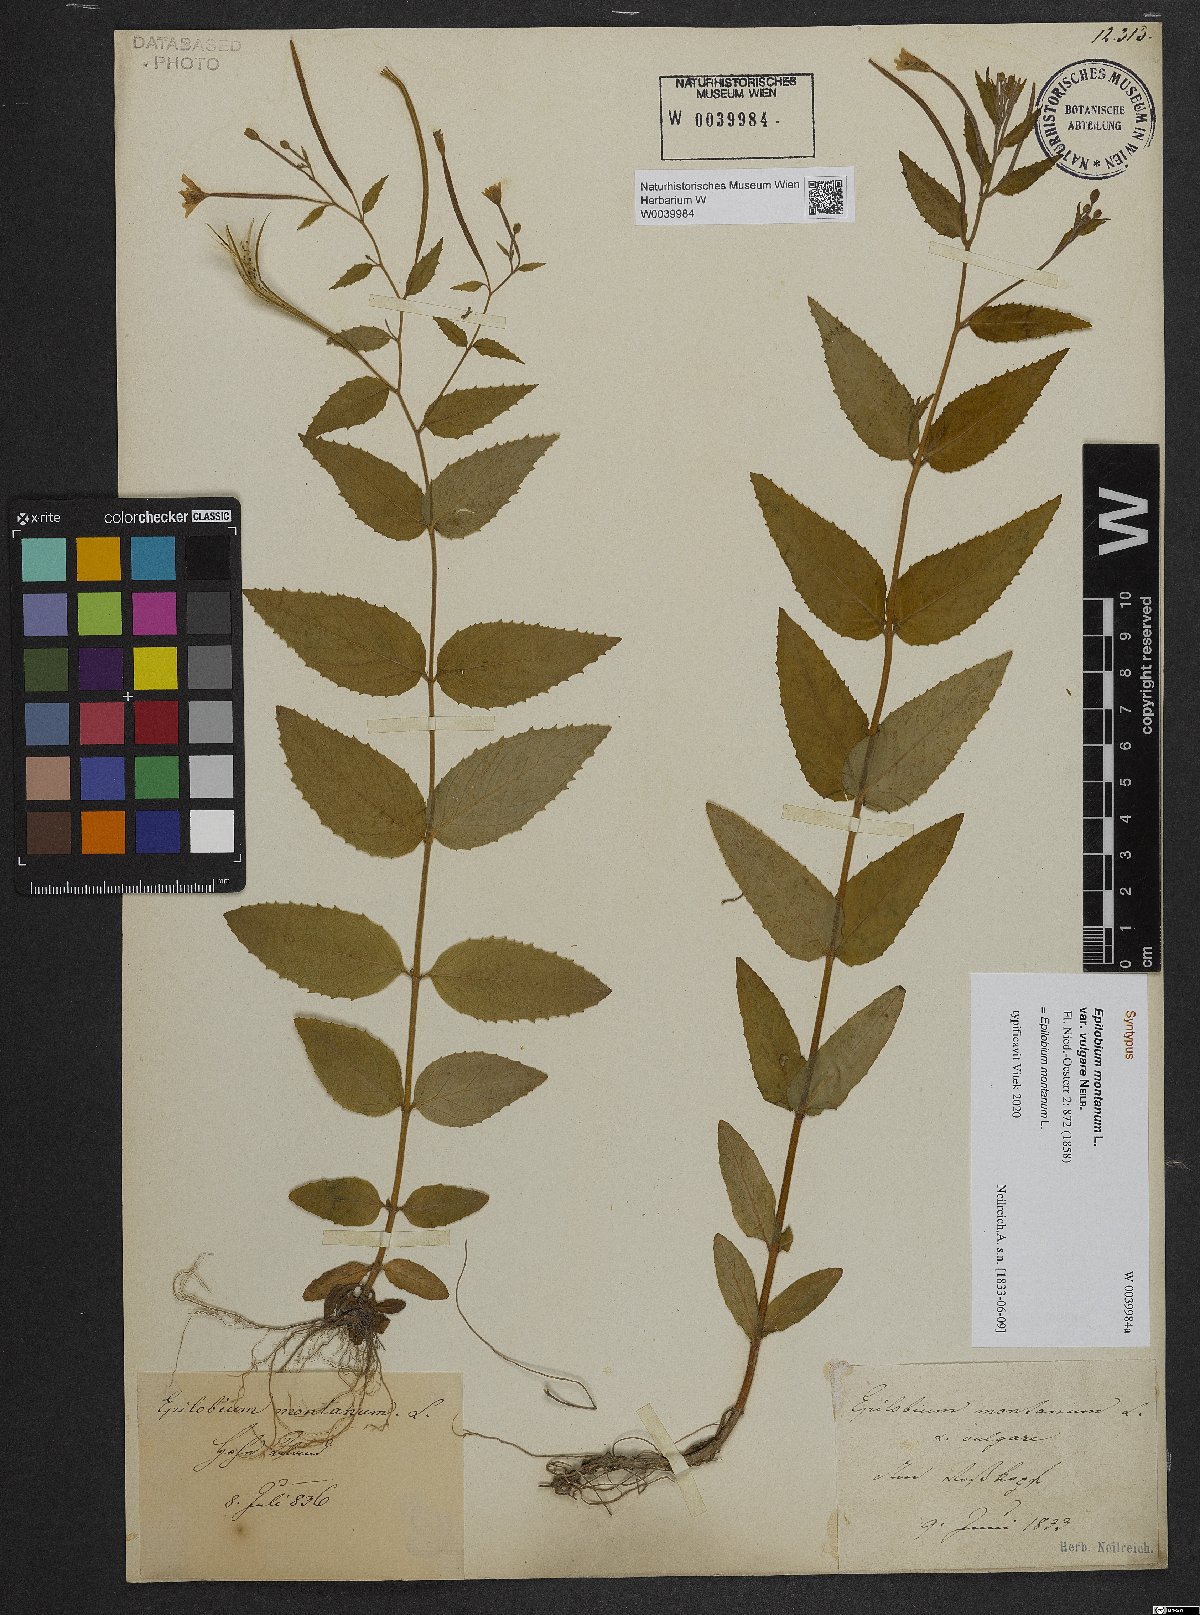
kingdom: Plantae
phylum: Tracheophyta
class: Magnoliopsida
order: Myrtales
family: Onagraceae
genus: Epilobium
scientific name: Epilobium montanum
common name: Broad-leaved willowherb
